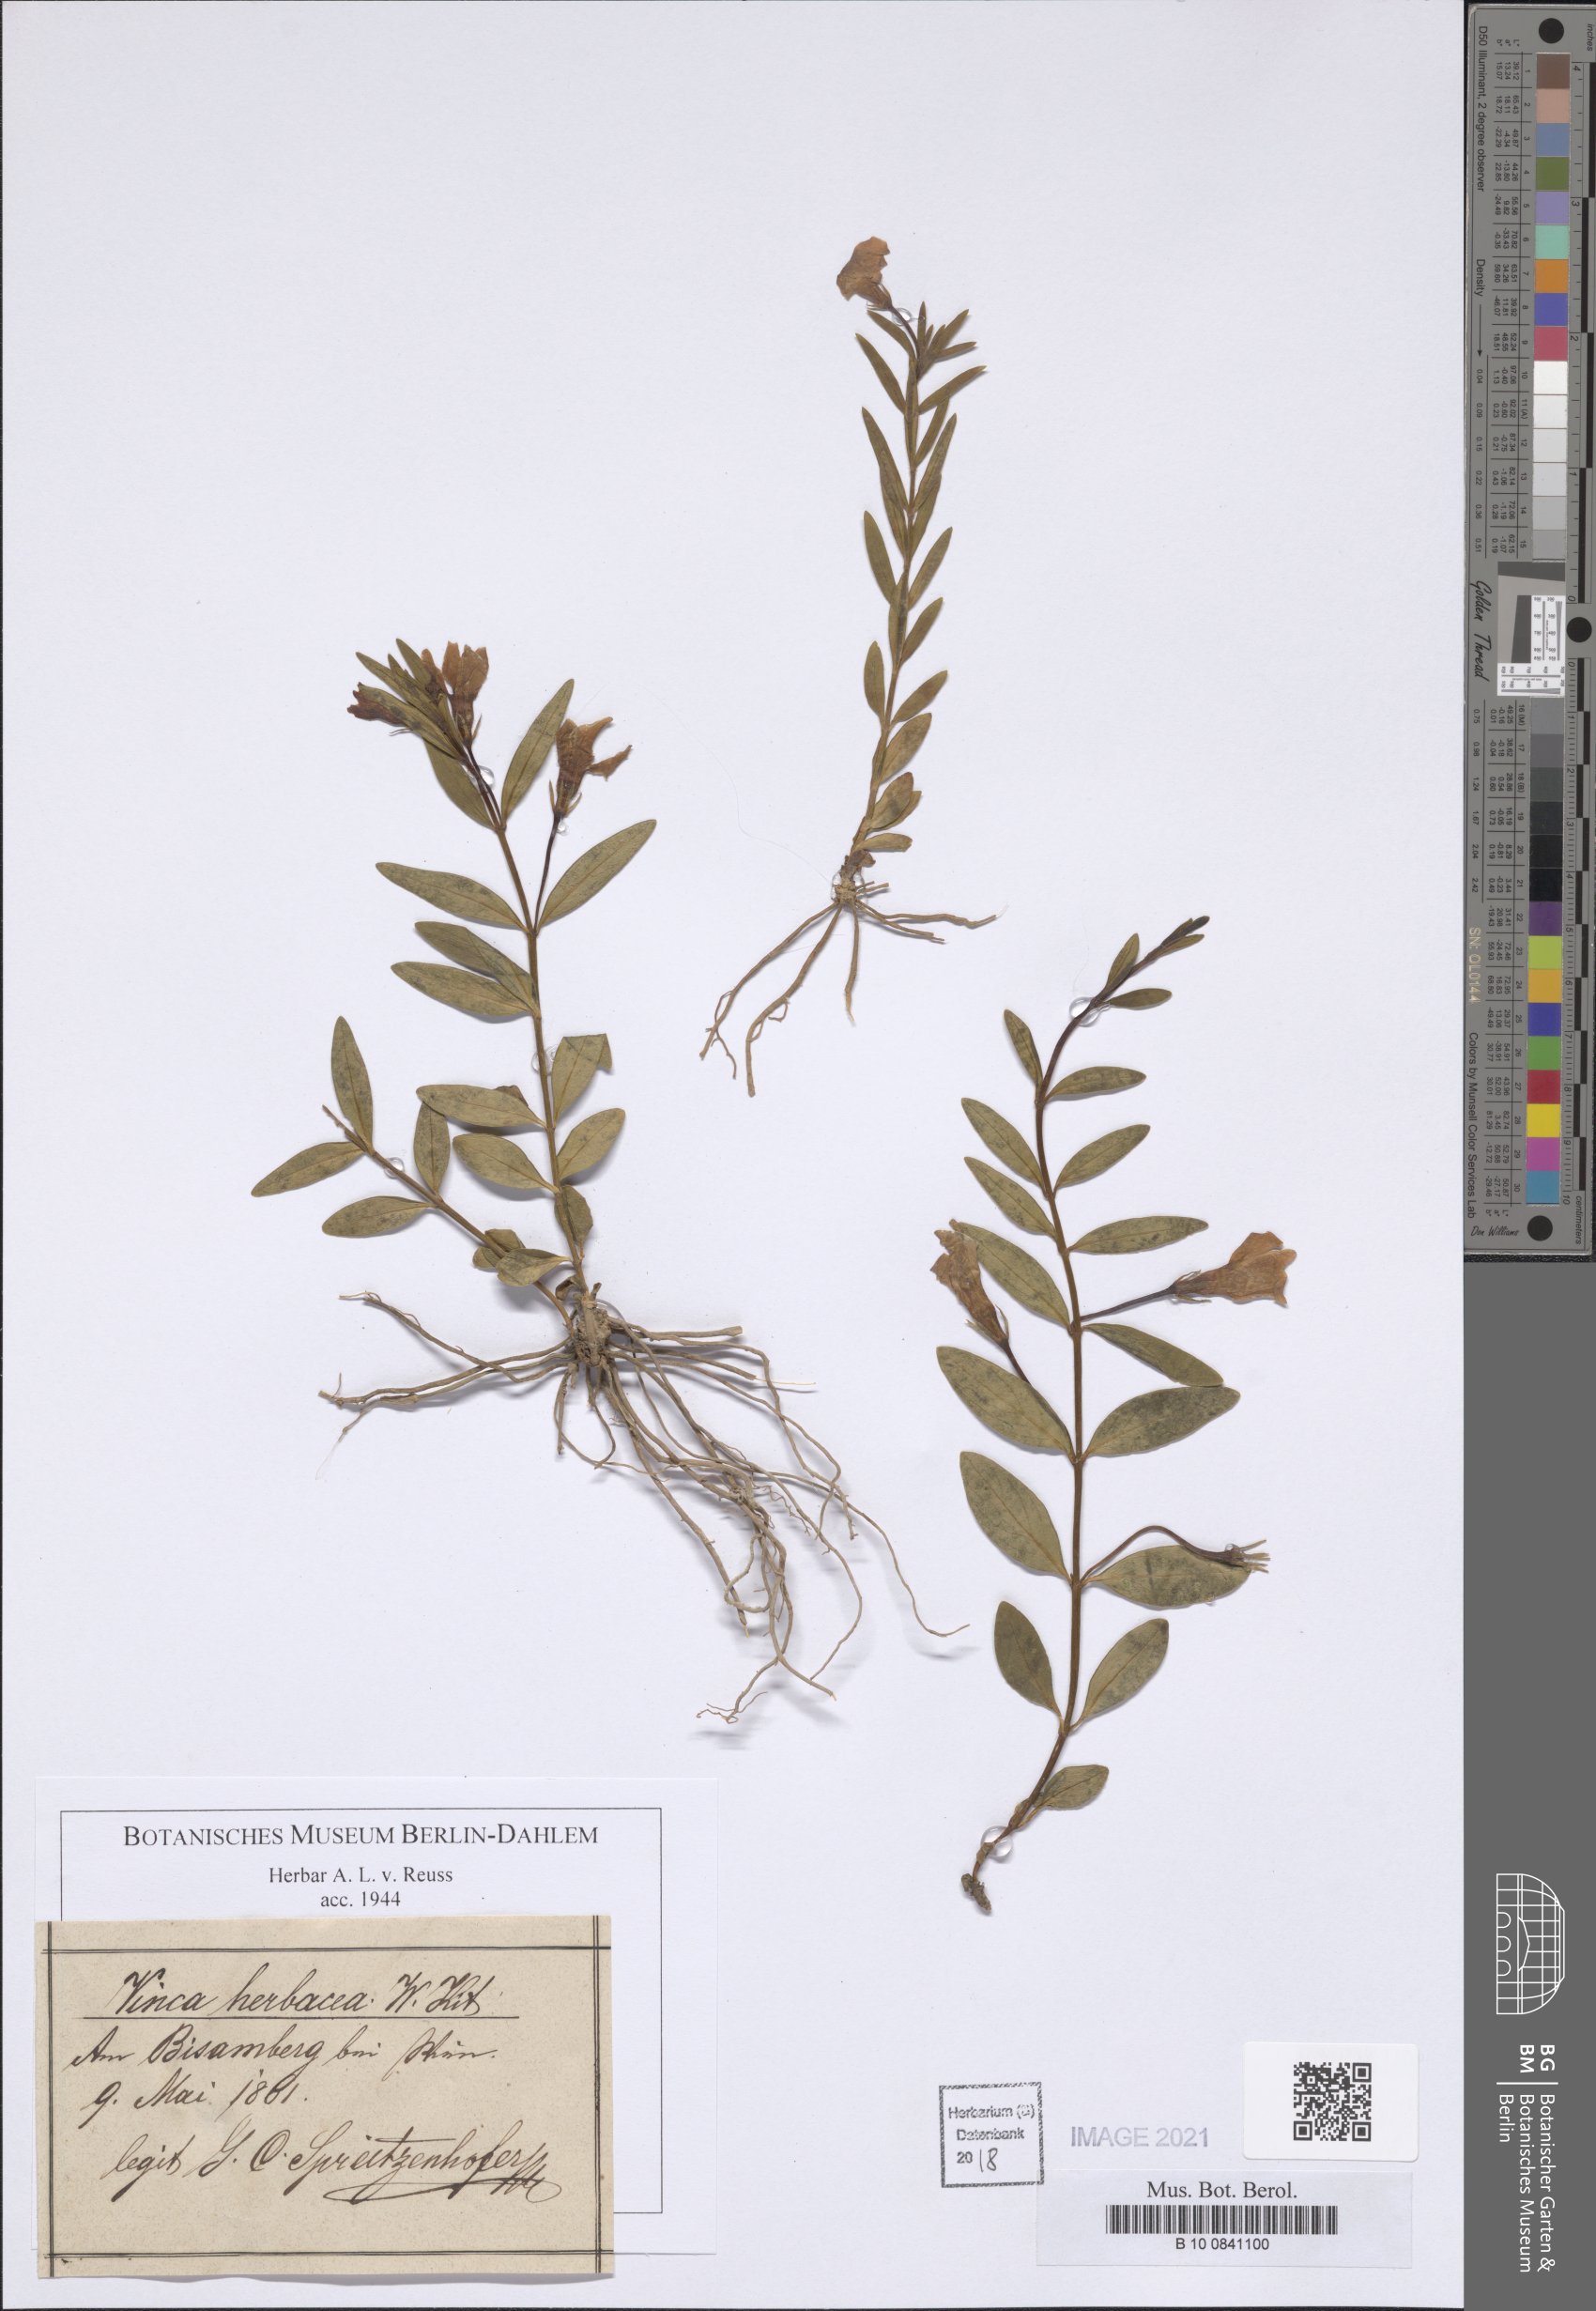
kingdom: Plantae
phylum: Tracheophyta
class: Magnoliopsida
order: Gentianales
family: Apocynaceae
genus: Vinca
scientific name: Vinca herbacea
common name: Herbaceous periwinkle
